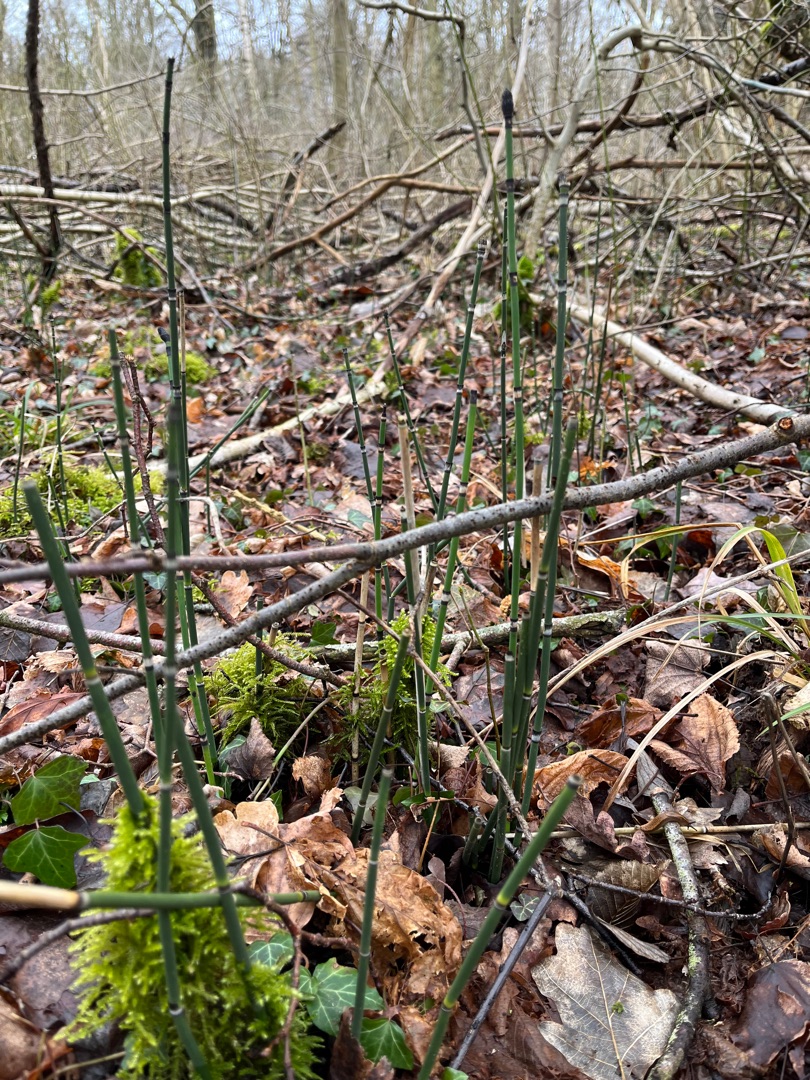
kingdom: Plantae
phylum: Tracheophyta
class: Polypodiopsida
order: Equisetales
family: Equisetaceae
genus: Equisetum
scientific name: Equisetum hyemale
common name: Skavgræs
